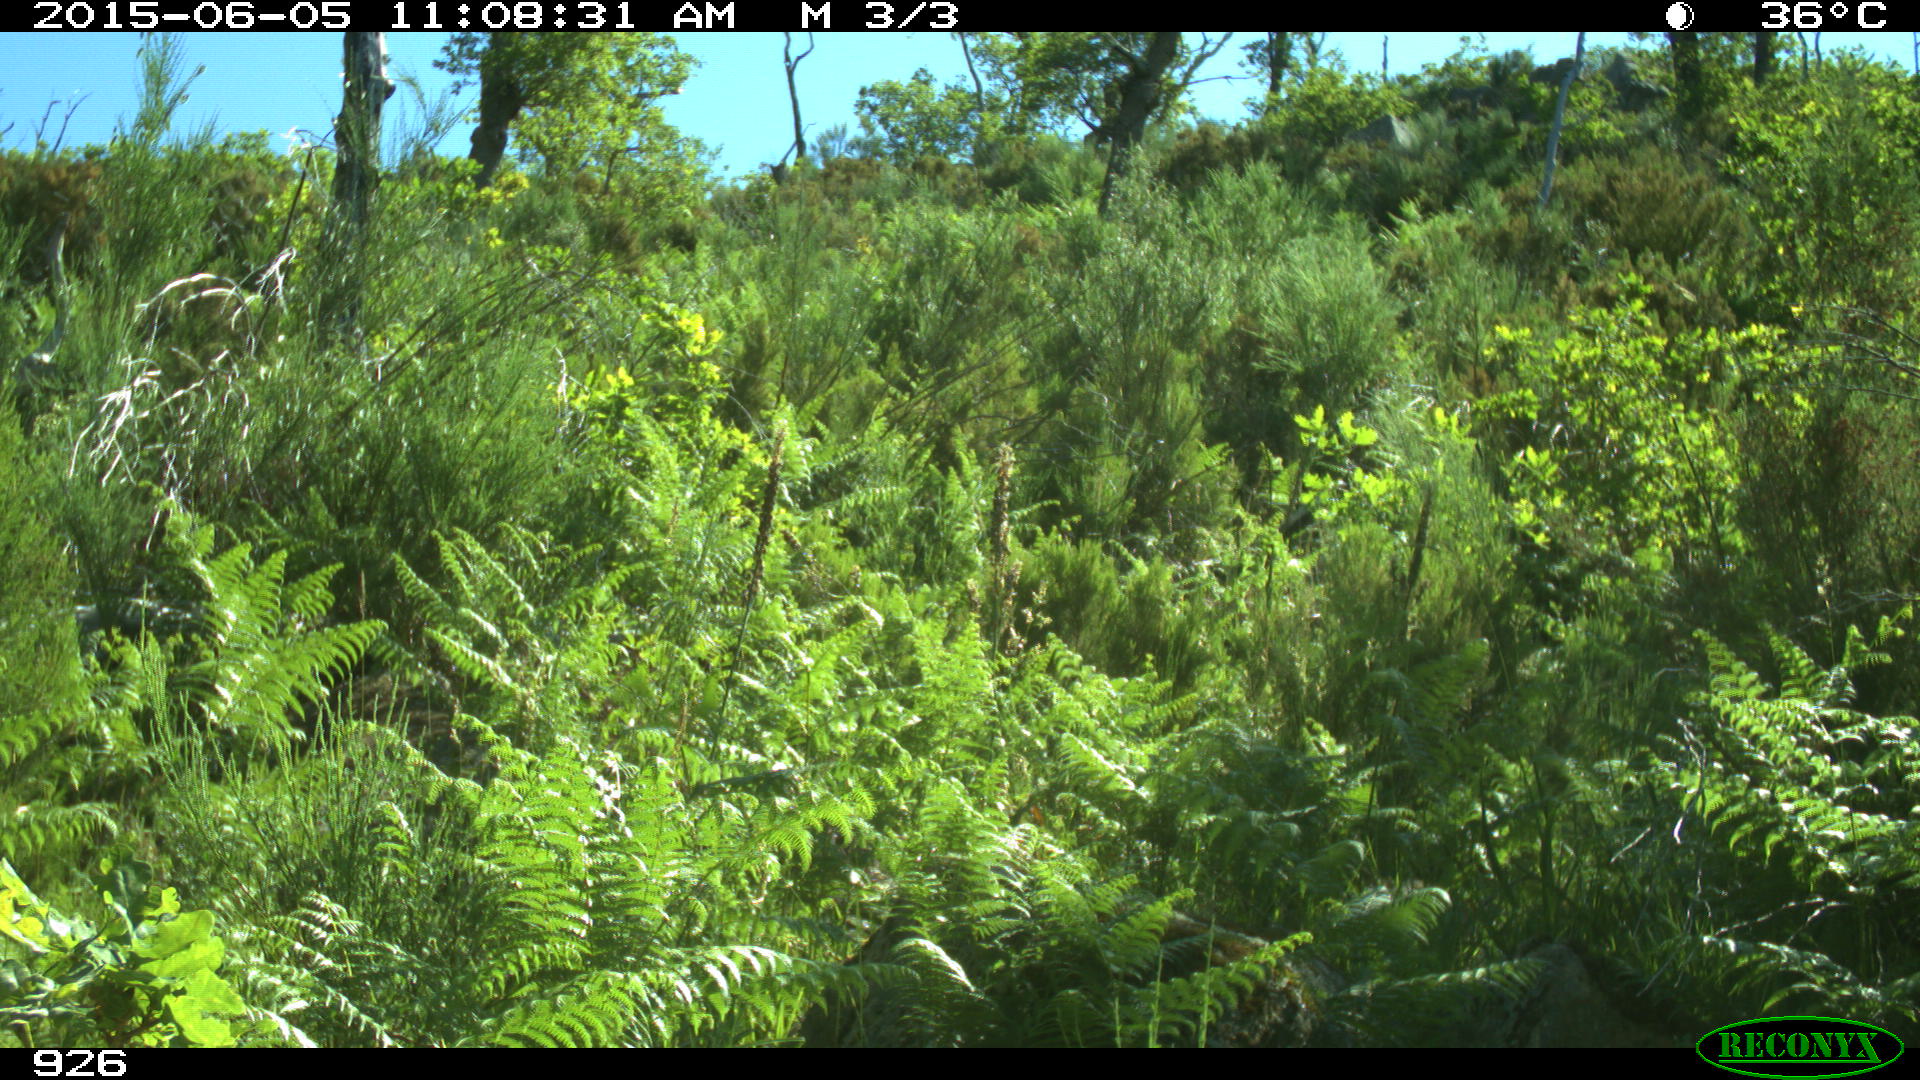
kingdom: Animalia
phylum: Chordata
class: Mammalia
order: Artiodactyla
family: Bovidae
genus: Bos
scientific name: Bos taurus
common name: Domesticated cattle
